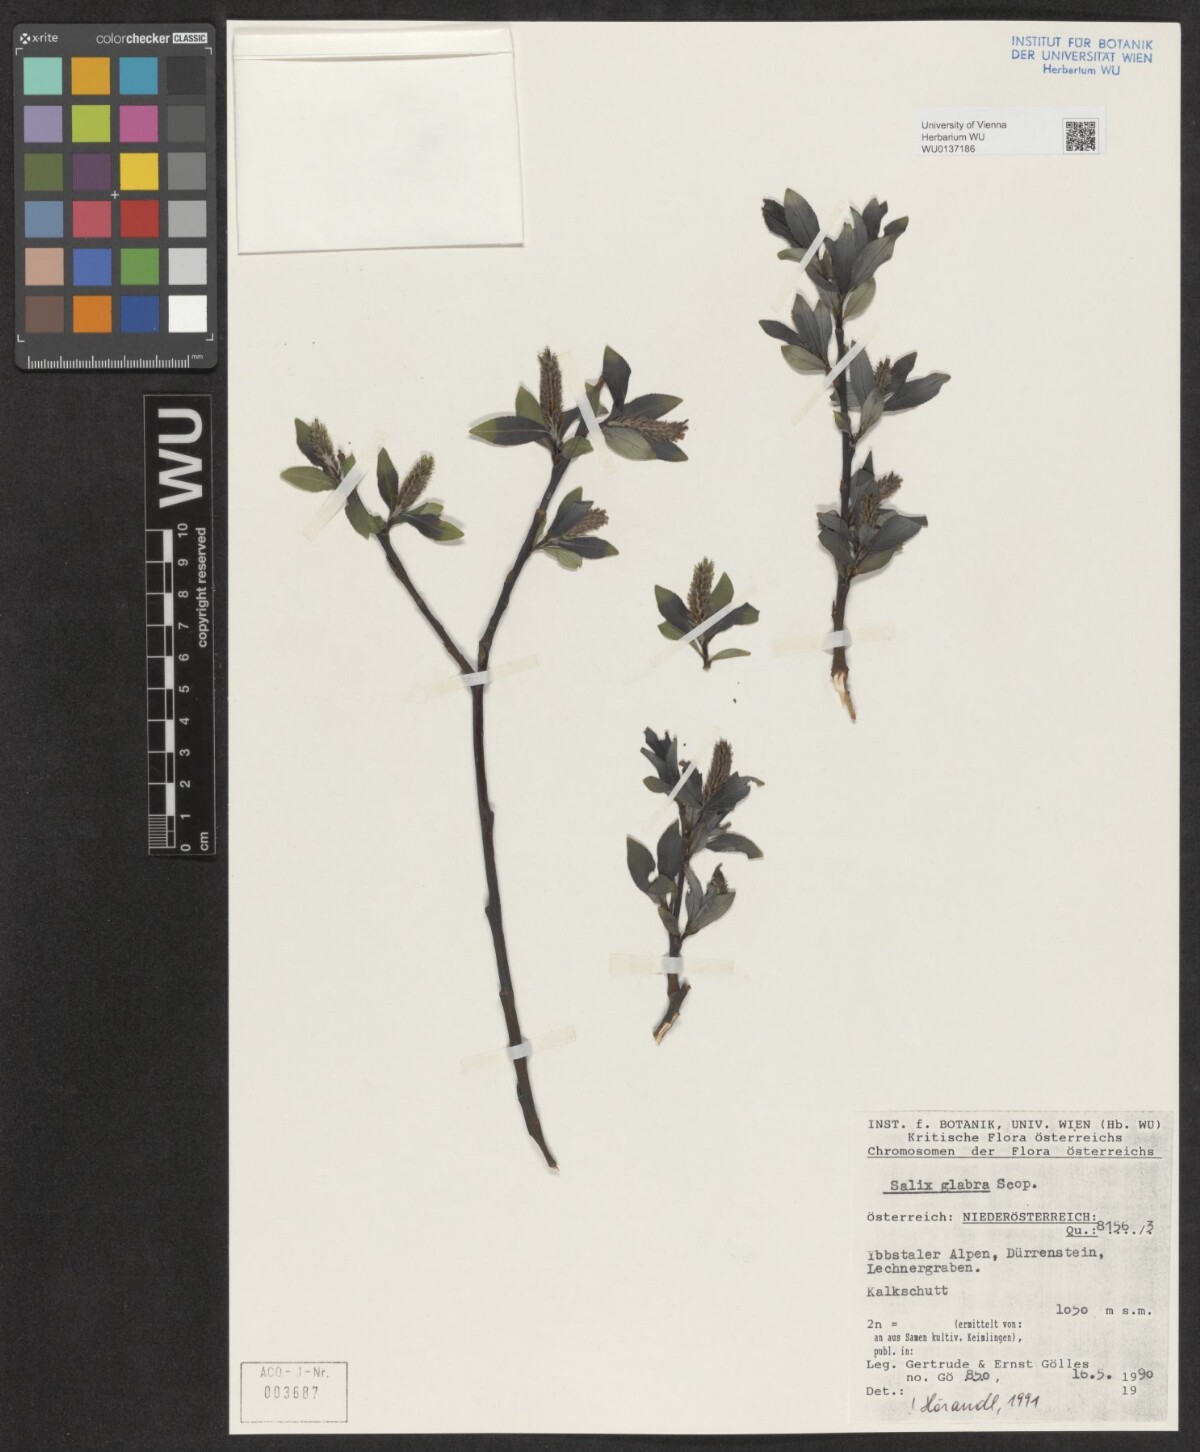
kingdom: Plantae
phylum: Tracheophyta
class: Magnoliopsida
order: Malpighiales
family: Salicaceae
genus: Salix
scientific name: Salix glabra
